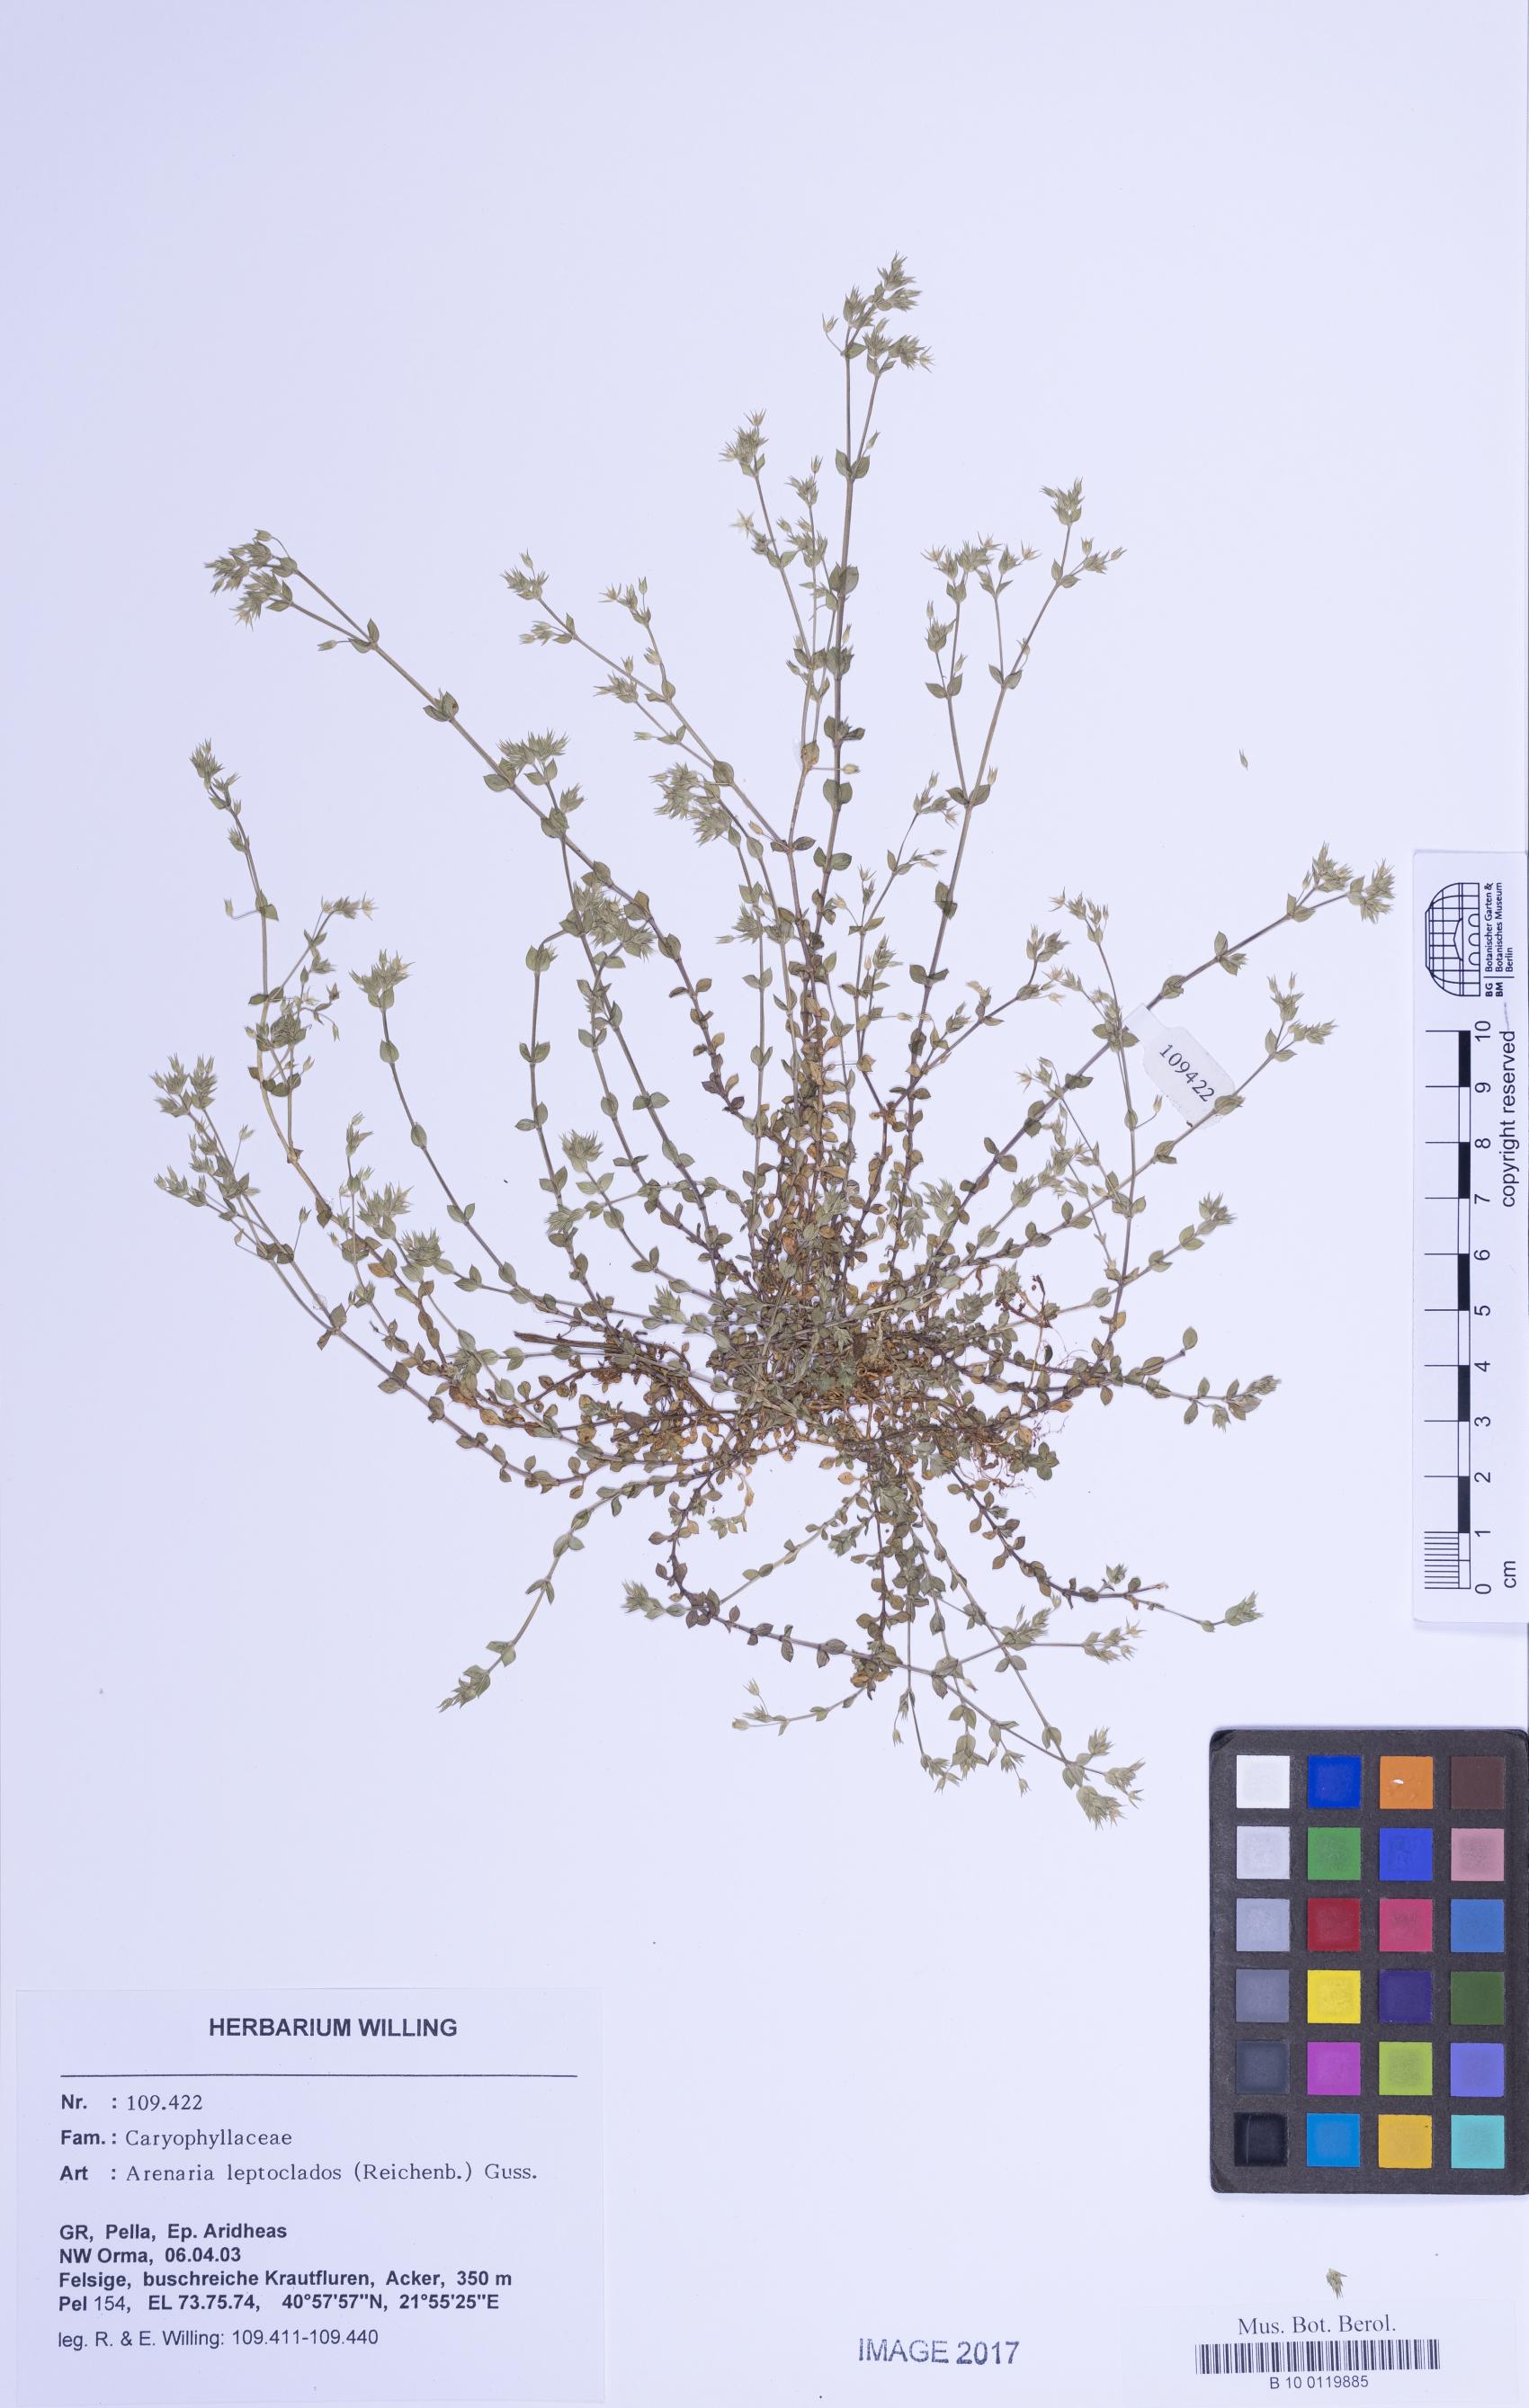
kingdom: Plantae
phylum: Tracheophyta
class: Magnoliopsida
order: Caryophyllales
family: Caryophyllaceae
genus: Arenaria
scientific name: Arenaria leptoclados
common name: Thyme-leaved sandwort
